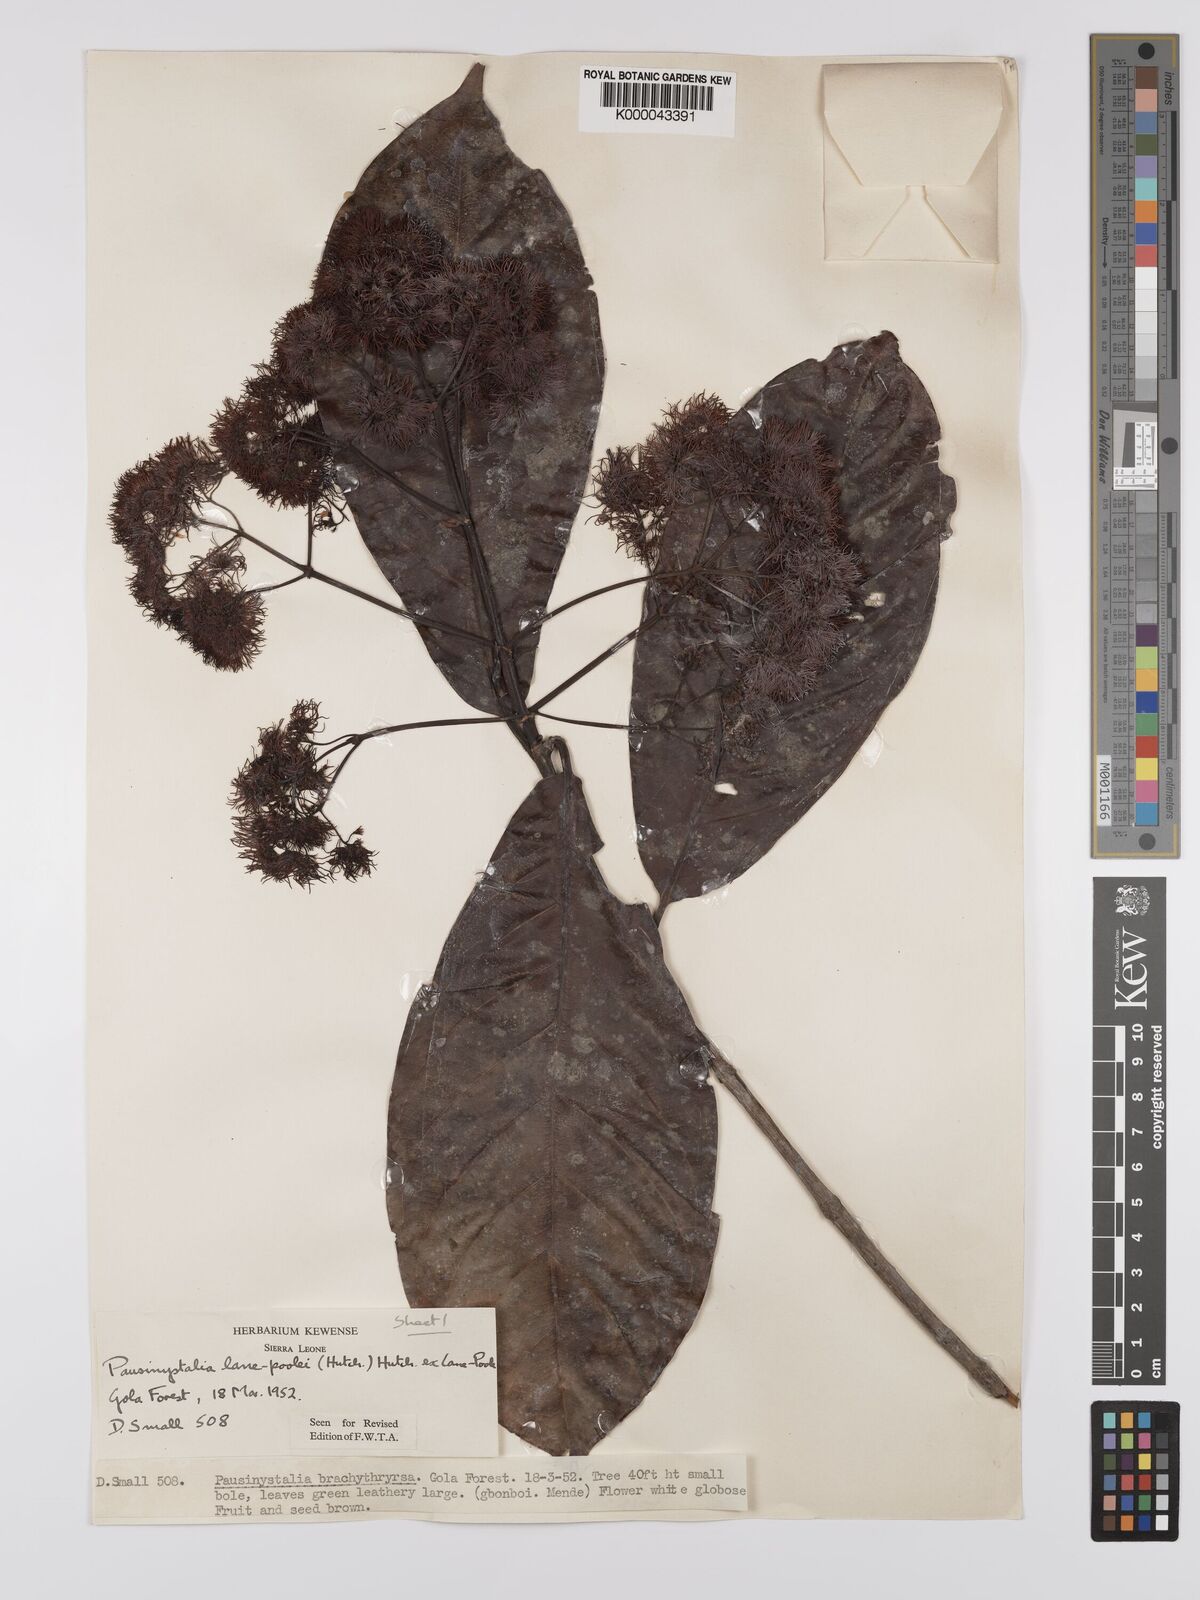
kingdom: Plantae
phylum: Tracheophyta
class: Magnoliopsida
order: Gentianales
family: Rubiaceae
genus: Corynanthe
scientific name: Corynanthe lane-poolei
